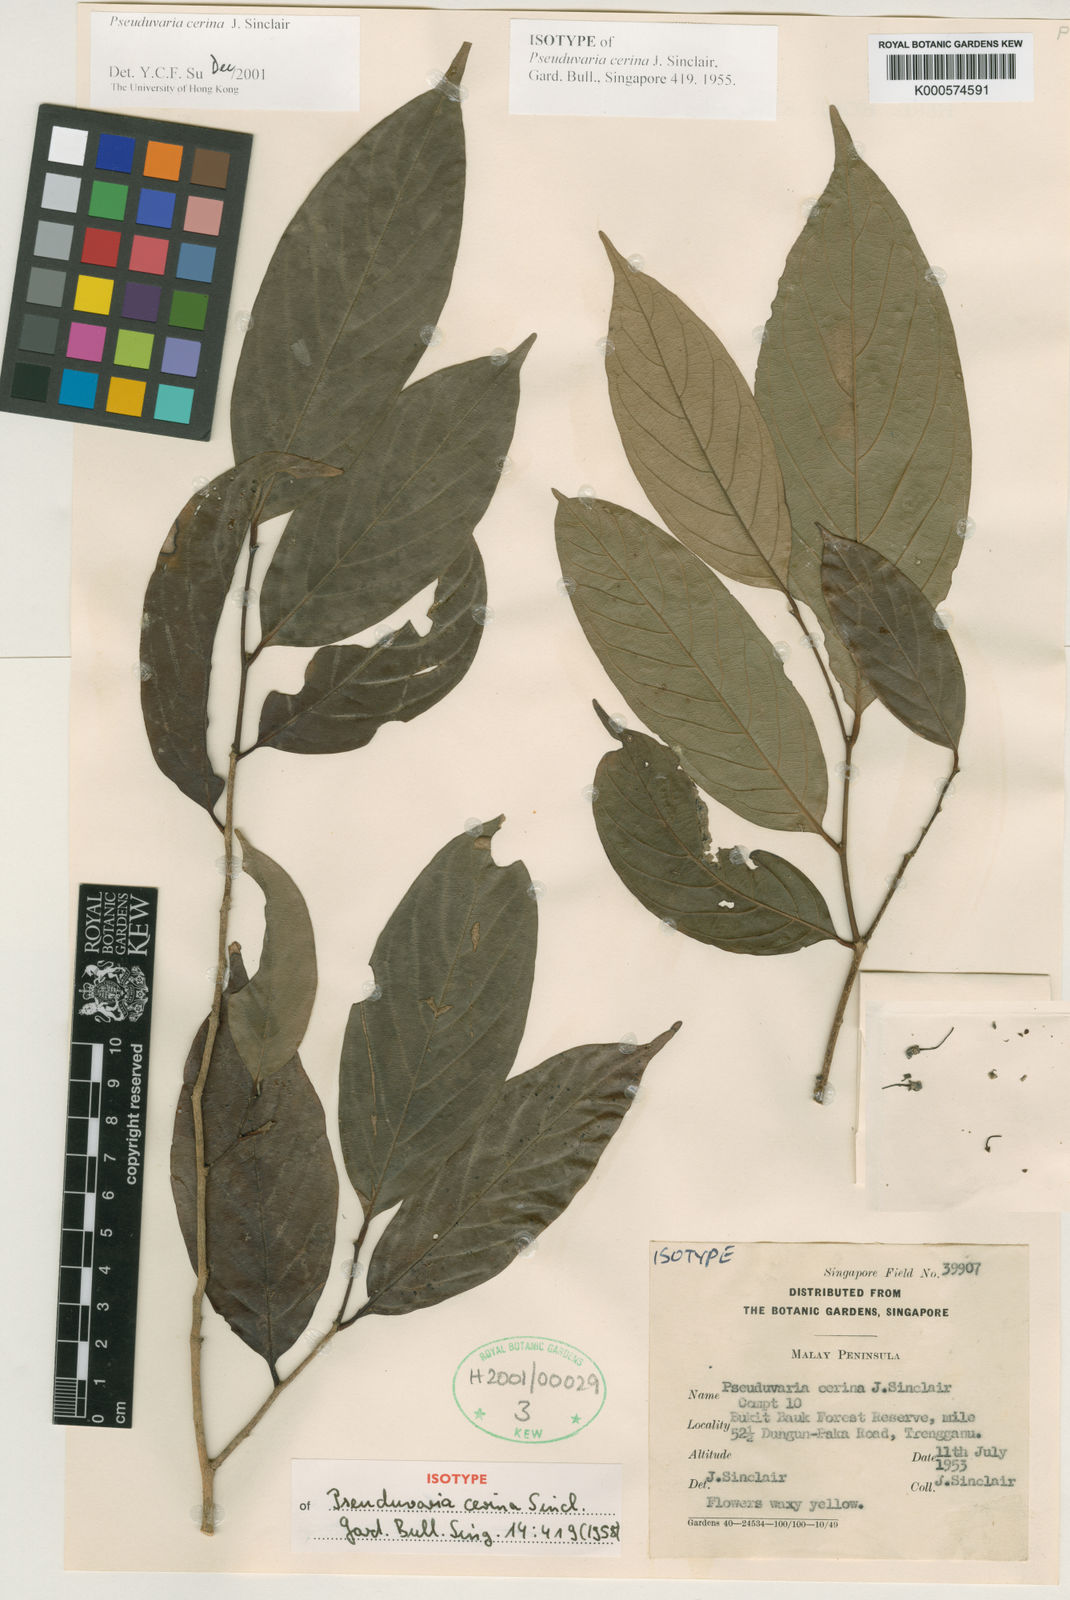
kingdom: Plantae
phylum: Tracheophyta
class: Magnoliopsida
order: Magnoliales
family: Annonaceae
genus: Pseuduvaria
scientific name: Pseuduvaria cerina
